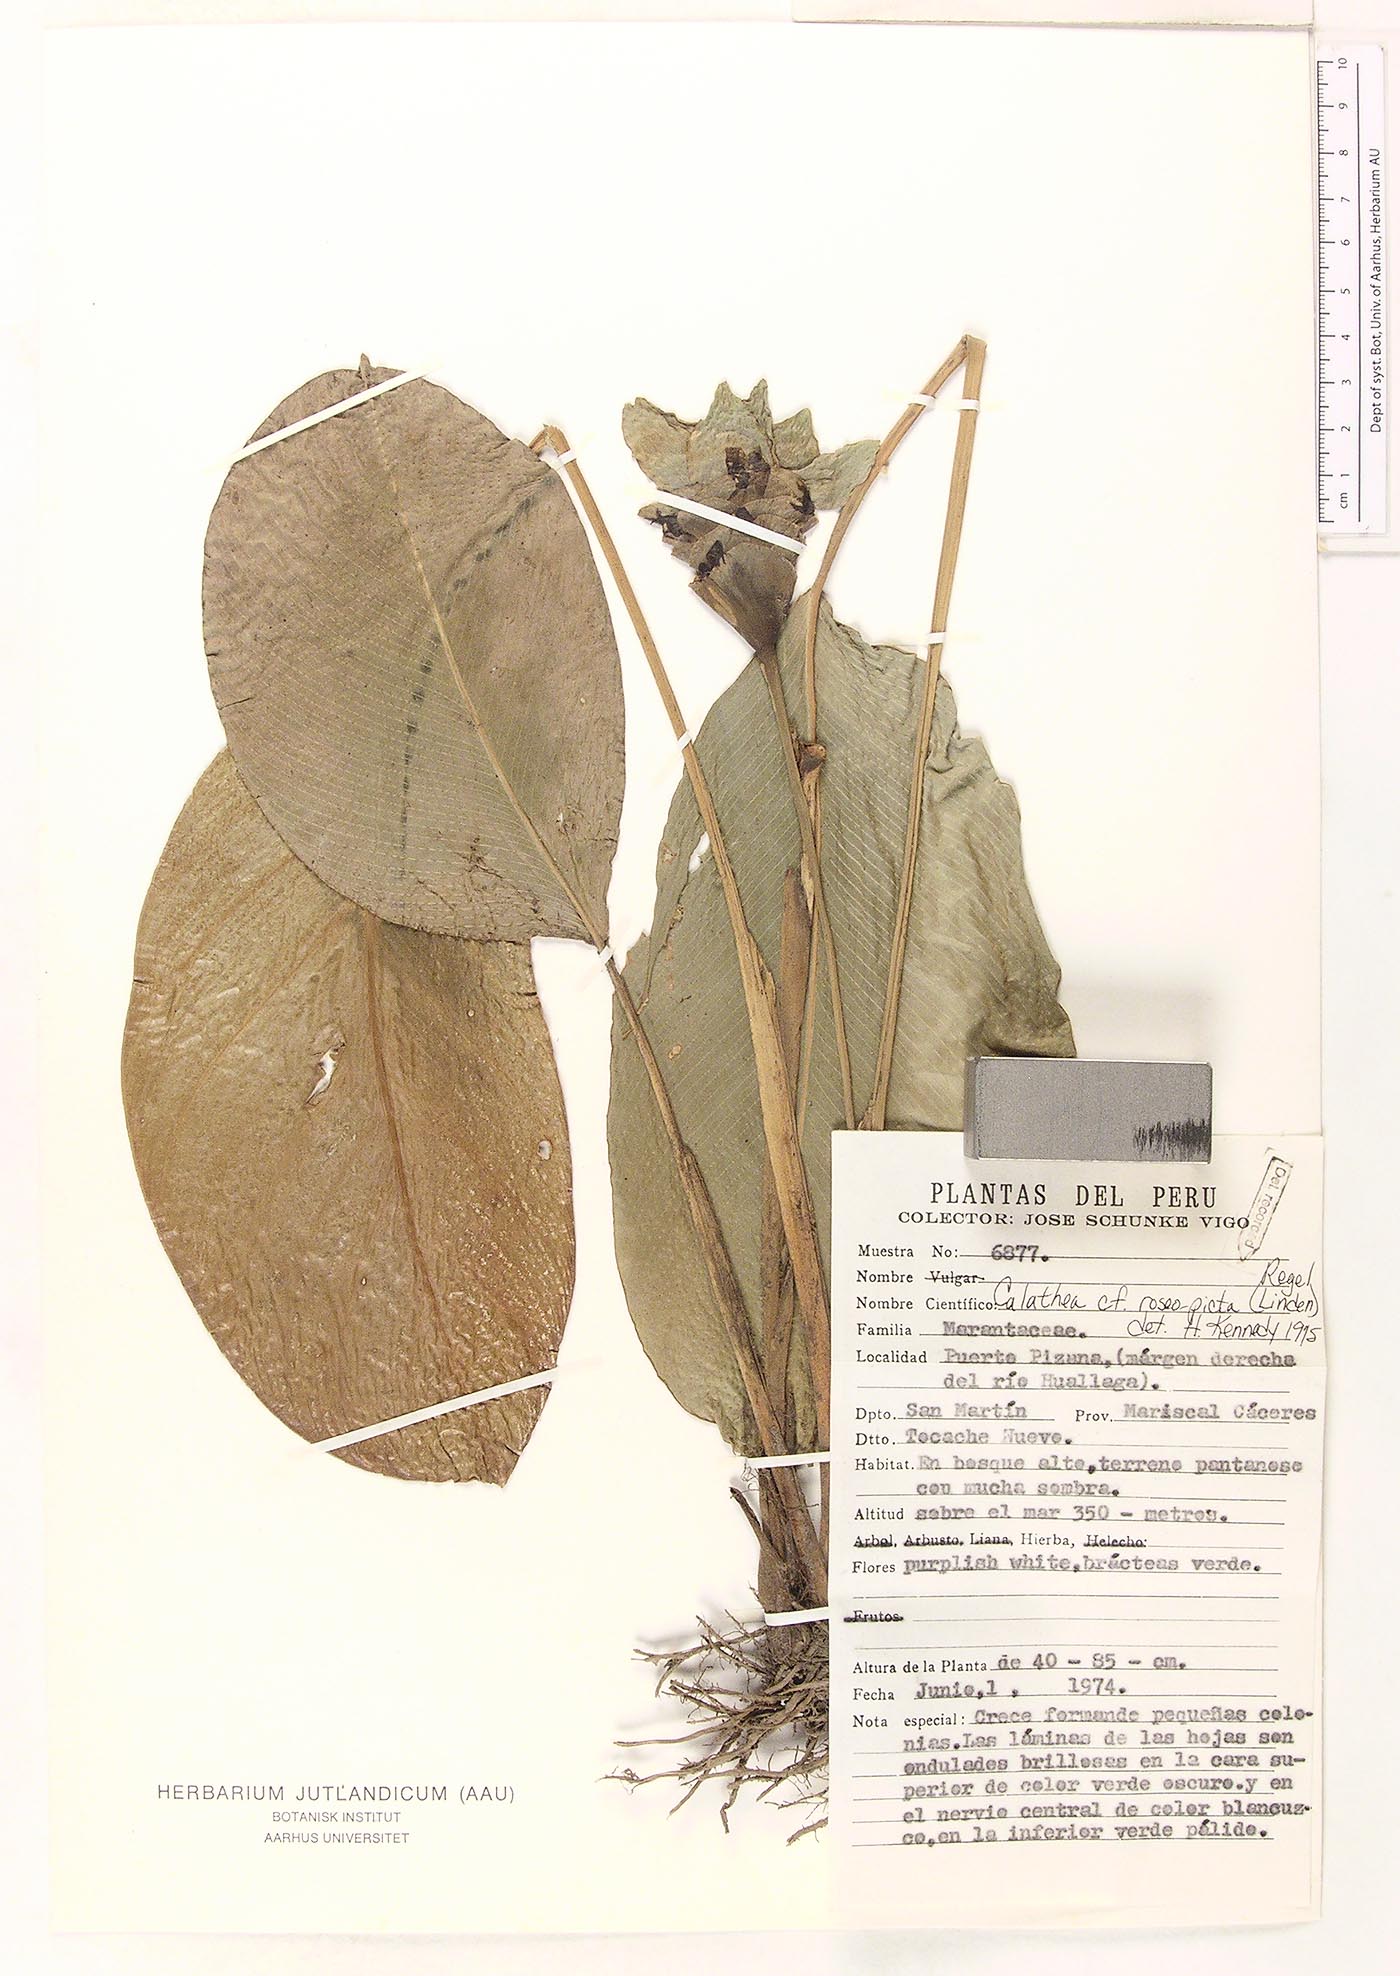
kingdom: Plantae
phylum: Tracheophyta
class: Liliopsida
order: Zingiberales
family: Marantaceae
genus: Goeppertia
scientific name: Goeppertia roseopicta
